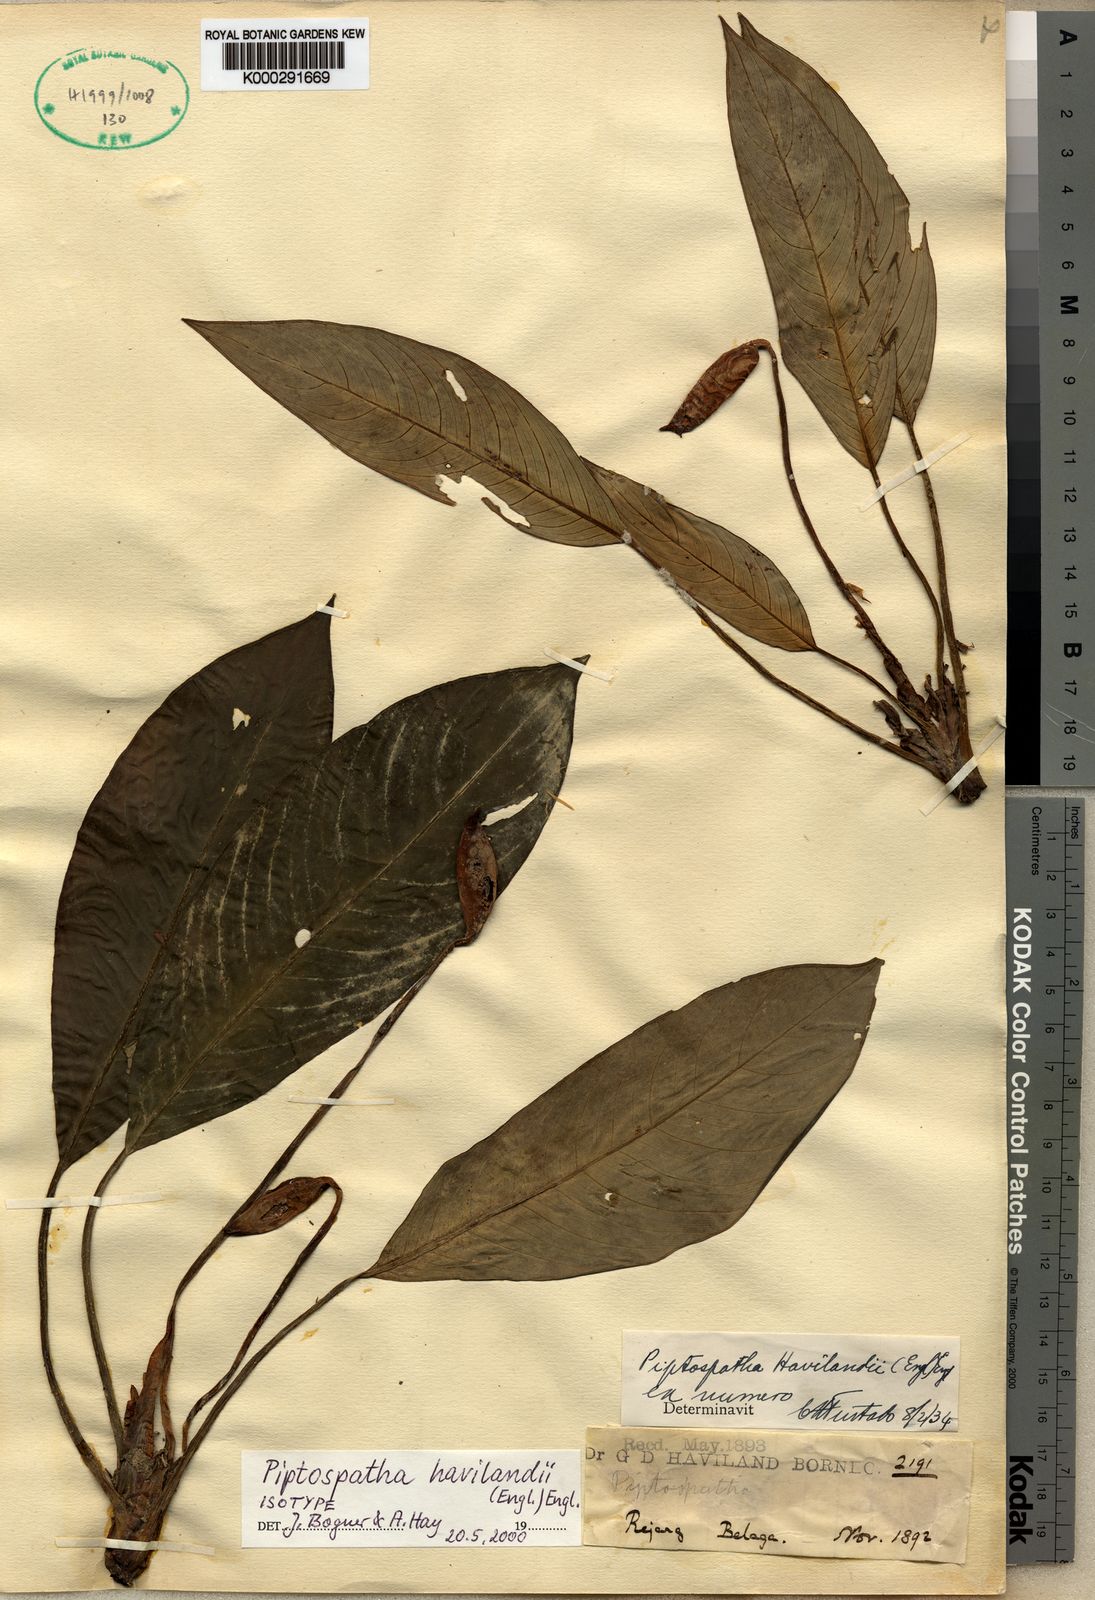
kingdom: Plantae
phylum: Tracheophyta
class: Liliopsida
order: Alismatales
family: Araceae
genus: Ooia
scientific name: Ooia grabowskii
